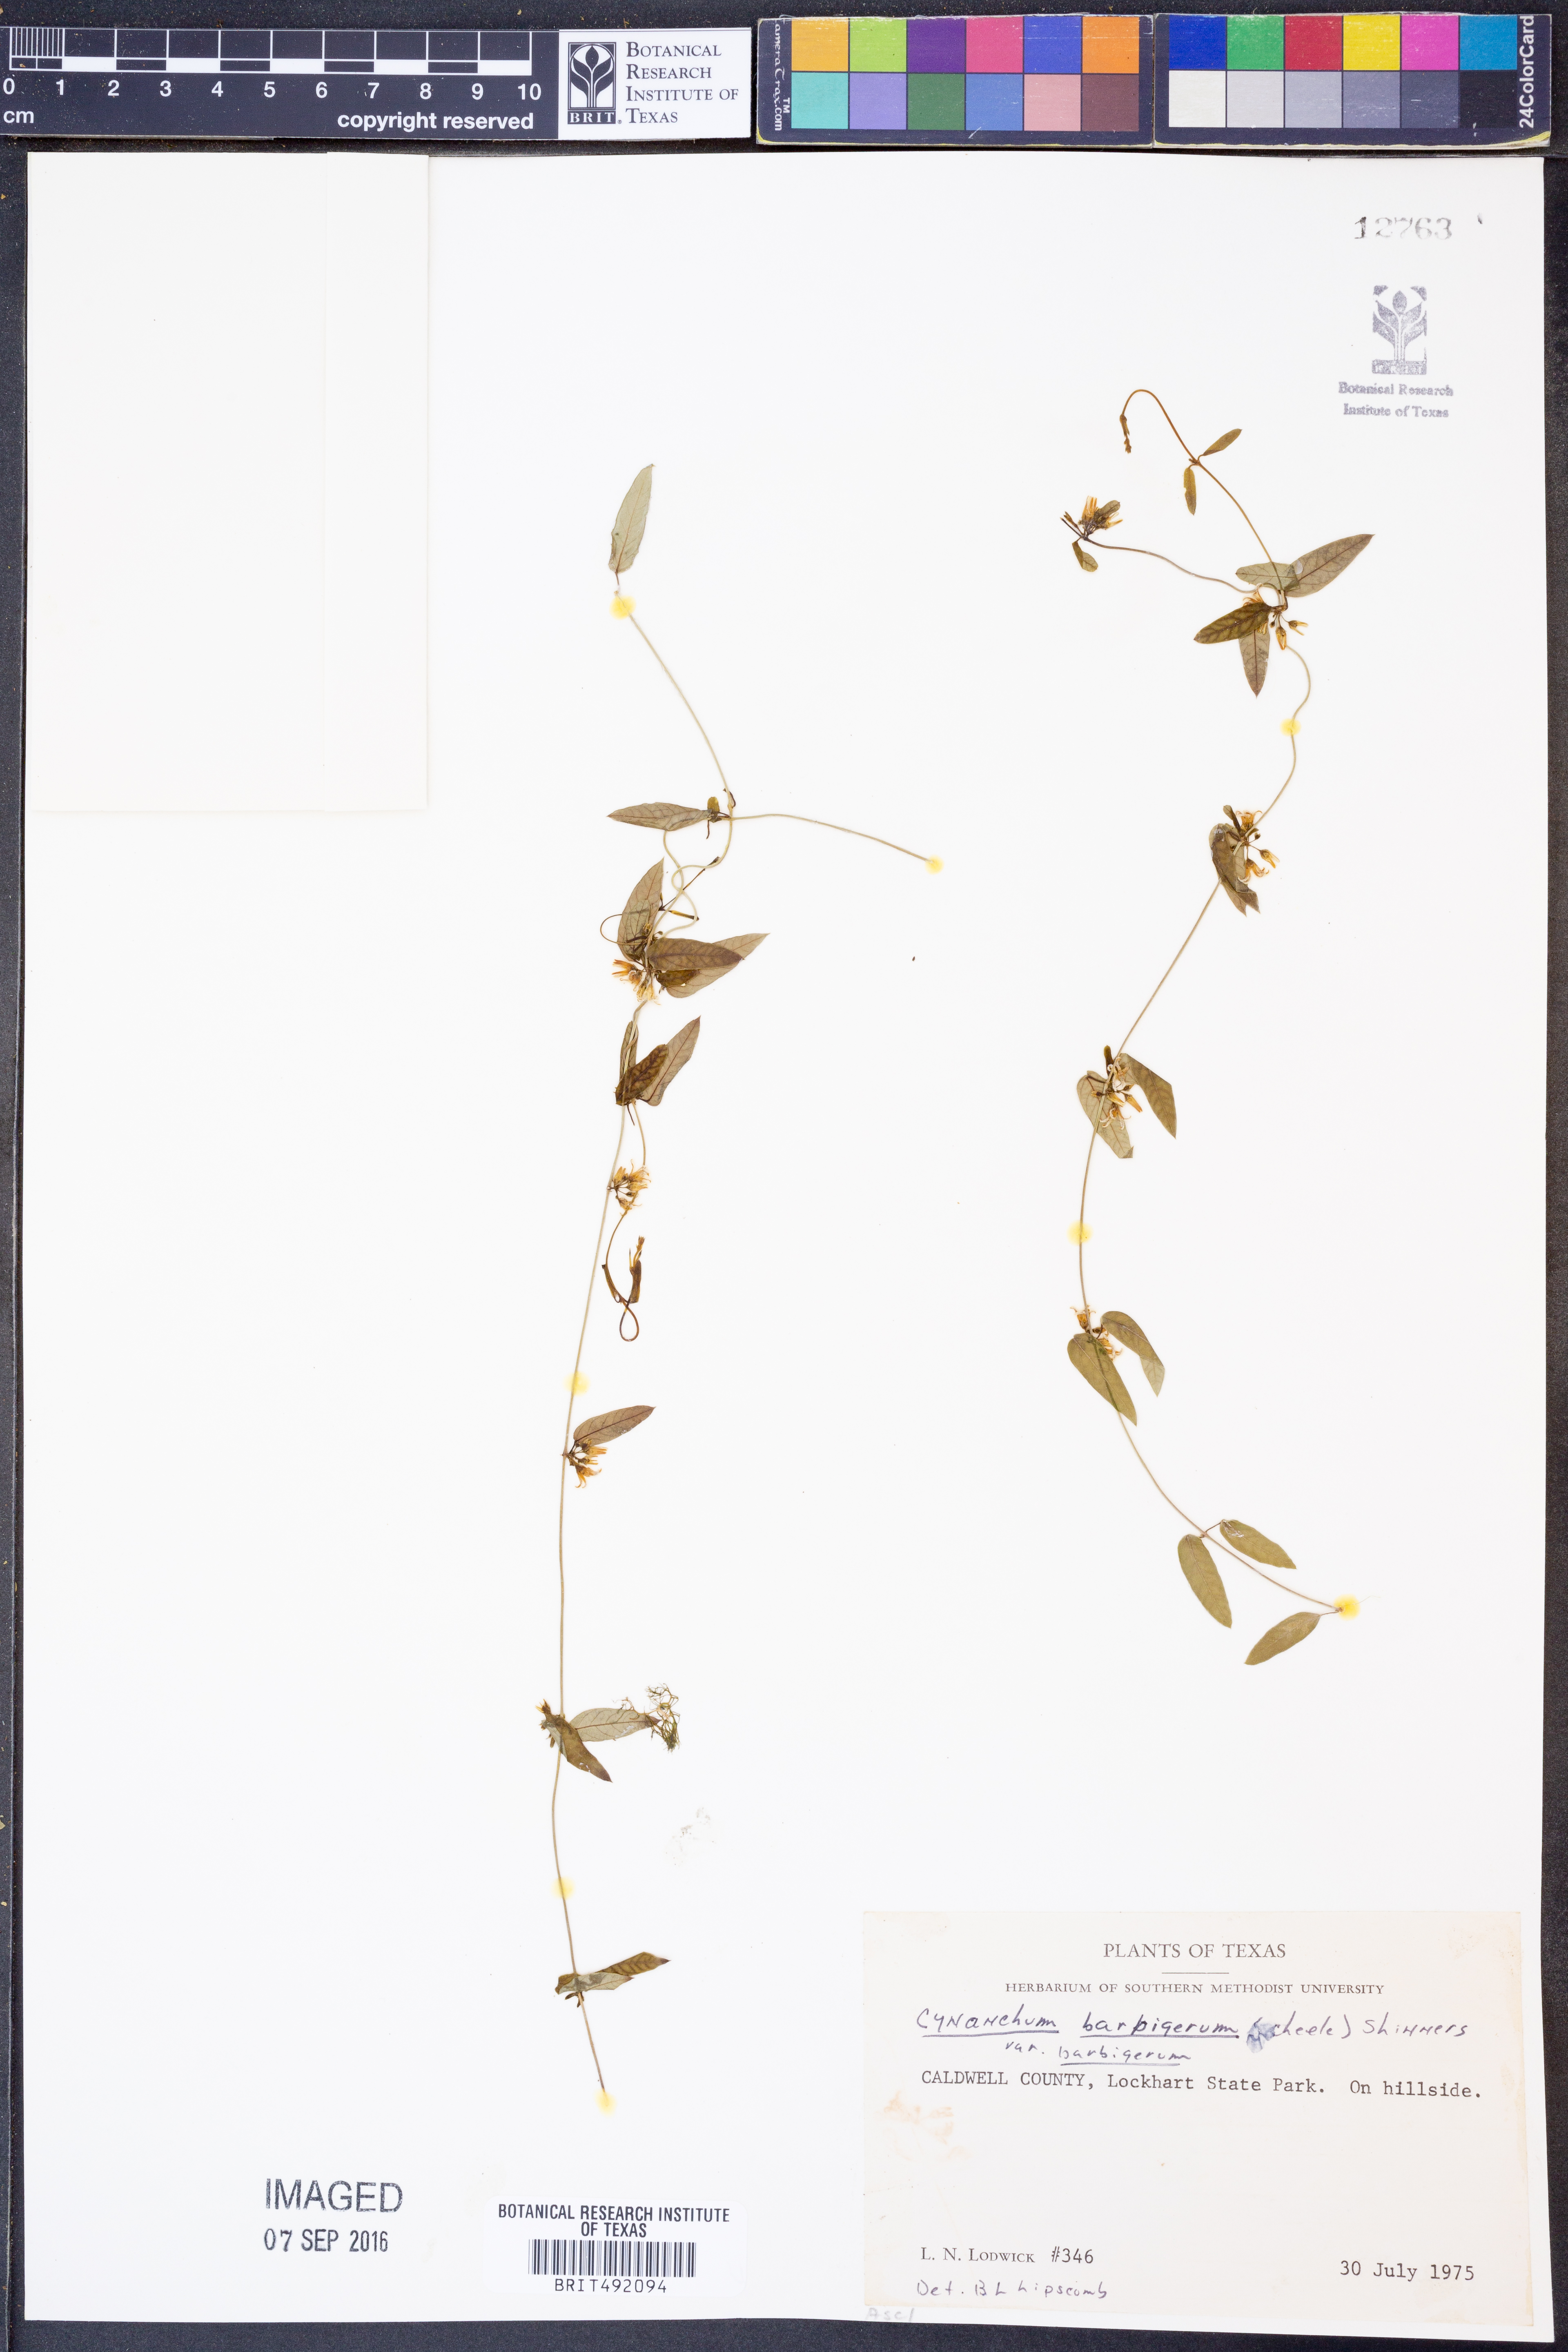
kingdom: Plantae
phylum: Tracheophyta
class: Magnoliopsida
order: Gentianales
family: Apocynaceae
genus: Metastelma
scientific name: Metastelma barbigerum
